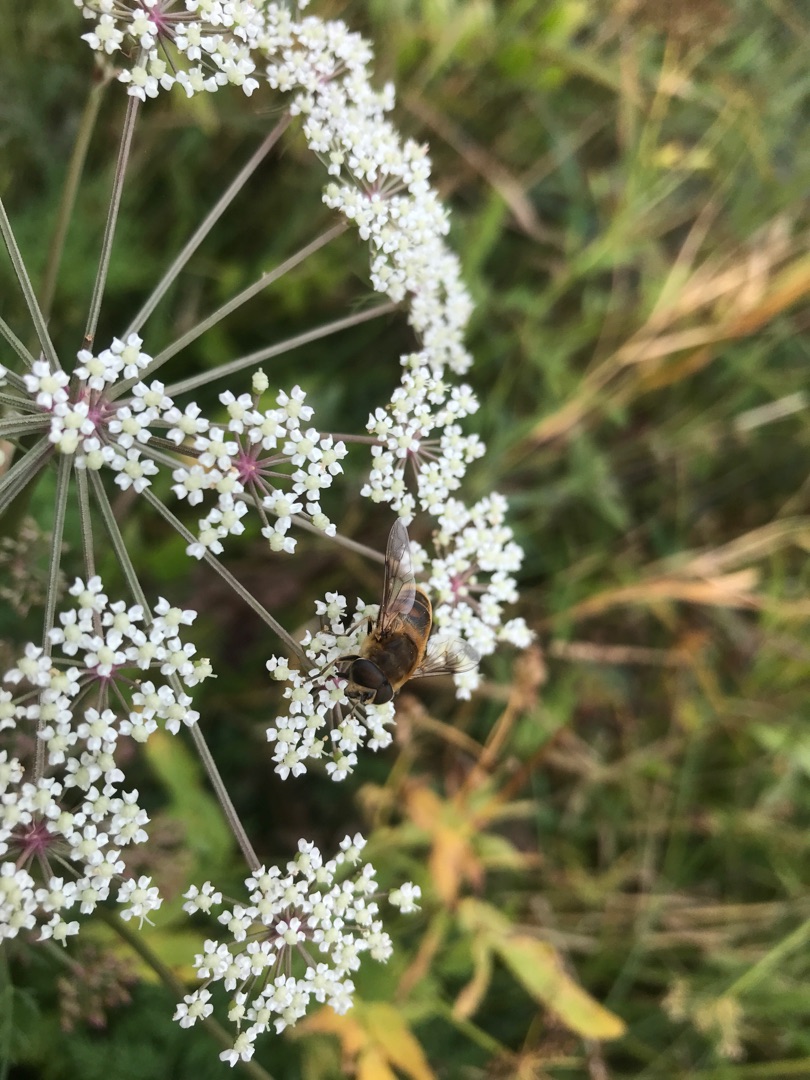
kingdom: Animalia
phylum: Arthropoda
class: Insecta
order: Diptera
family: Syrphidae
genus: Eristalis
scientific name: Eristalis tenax
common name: Droneflue
